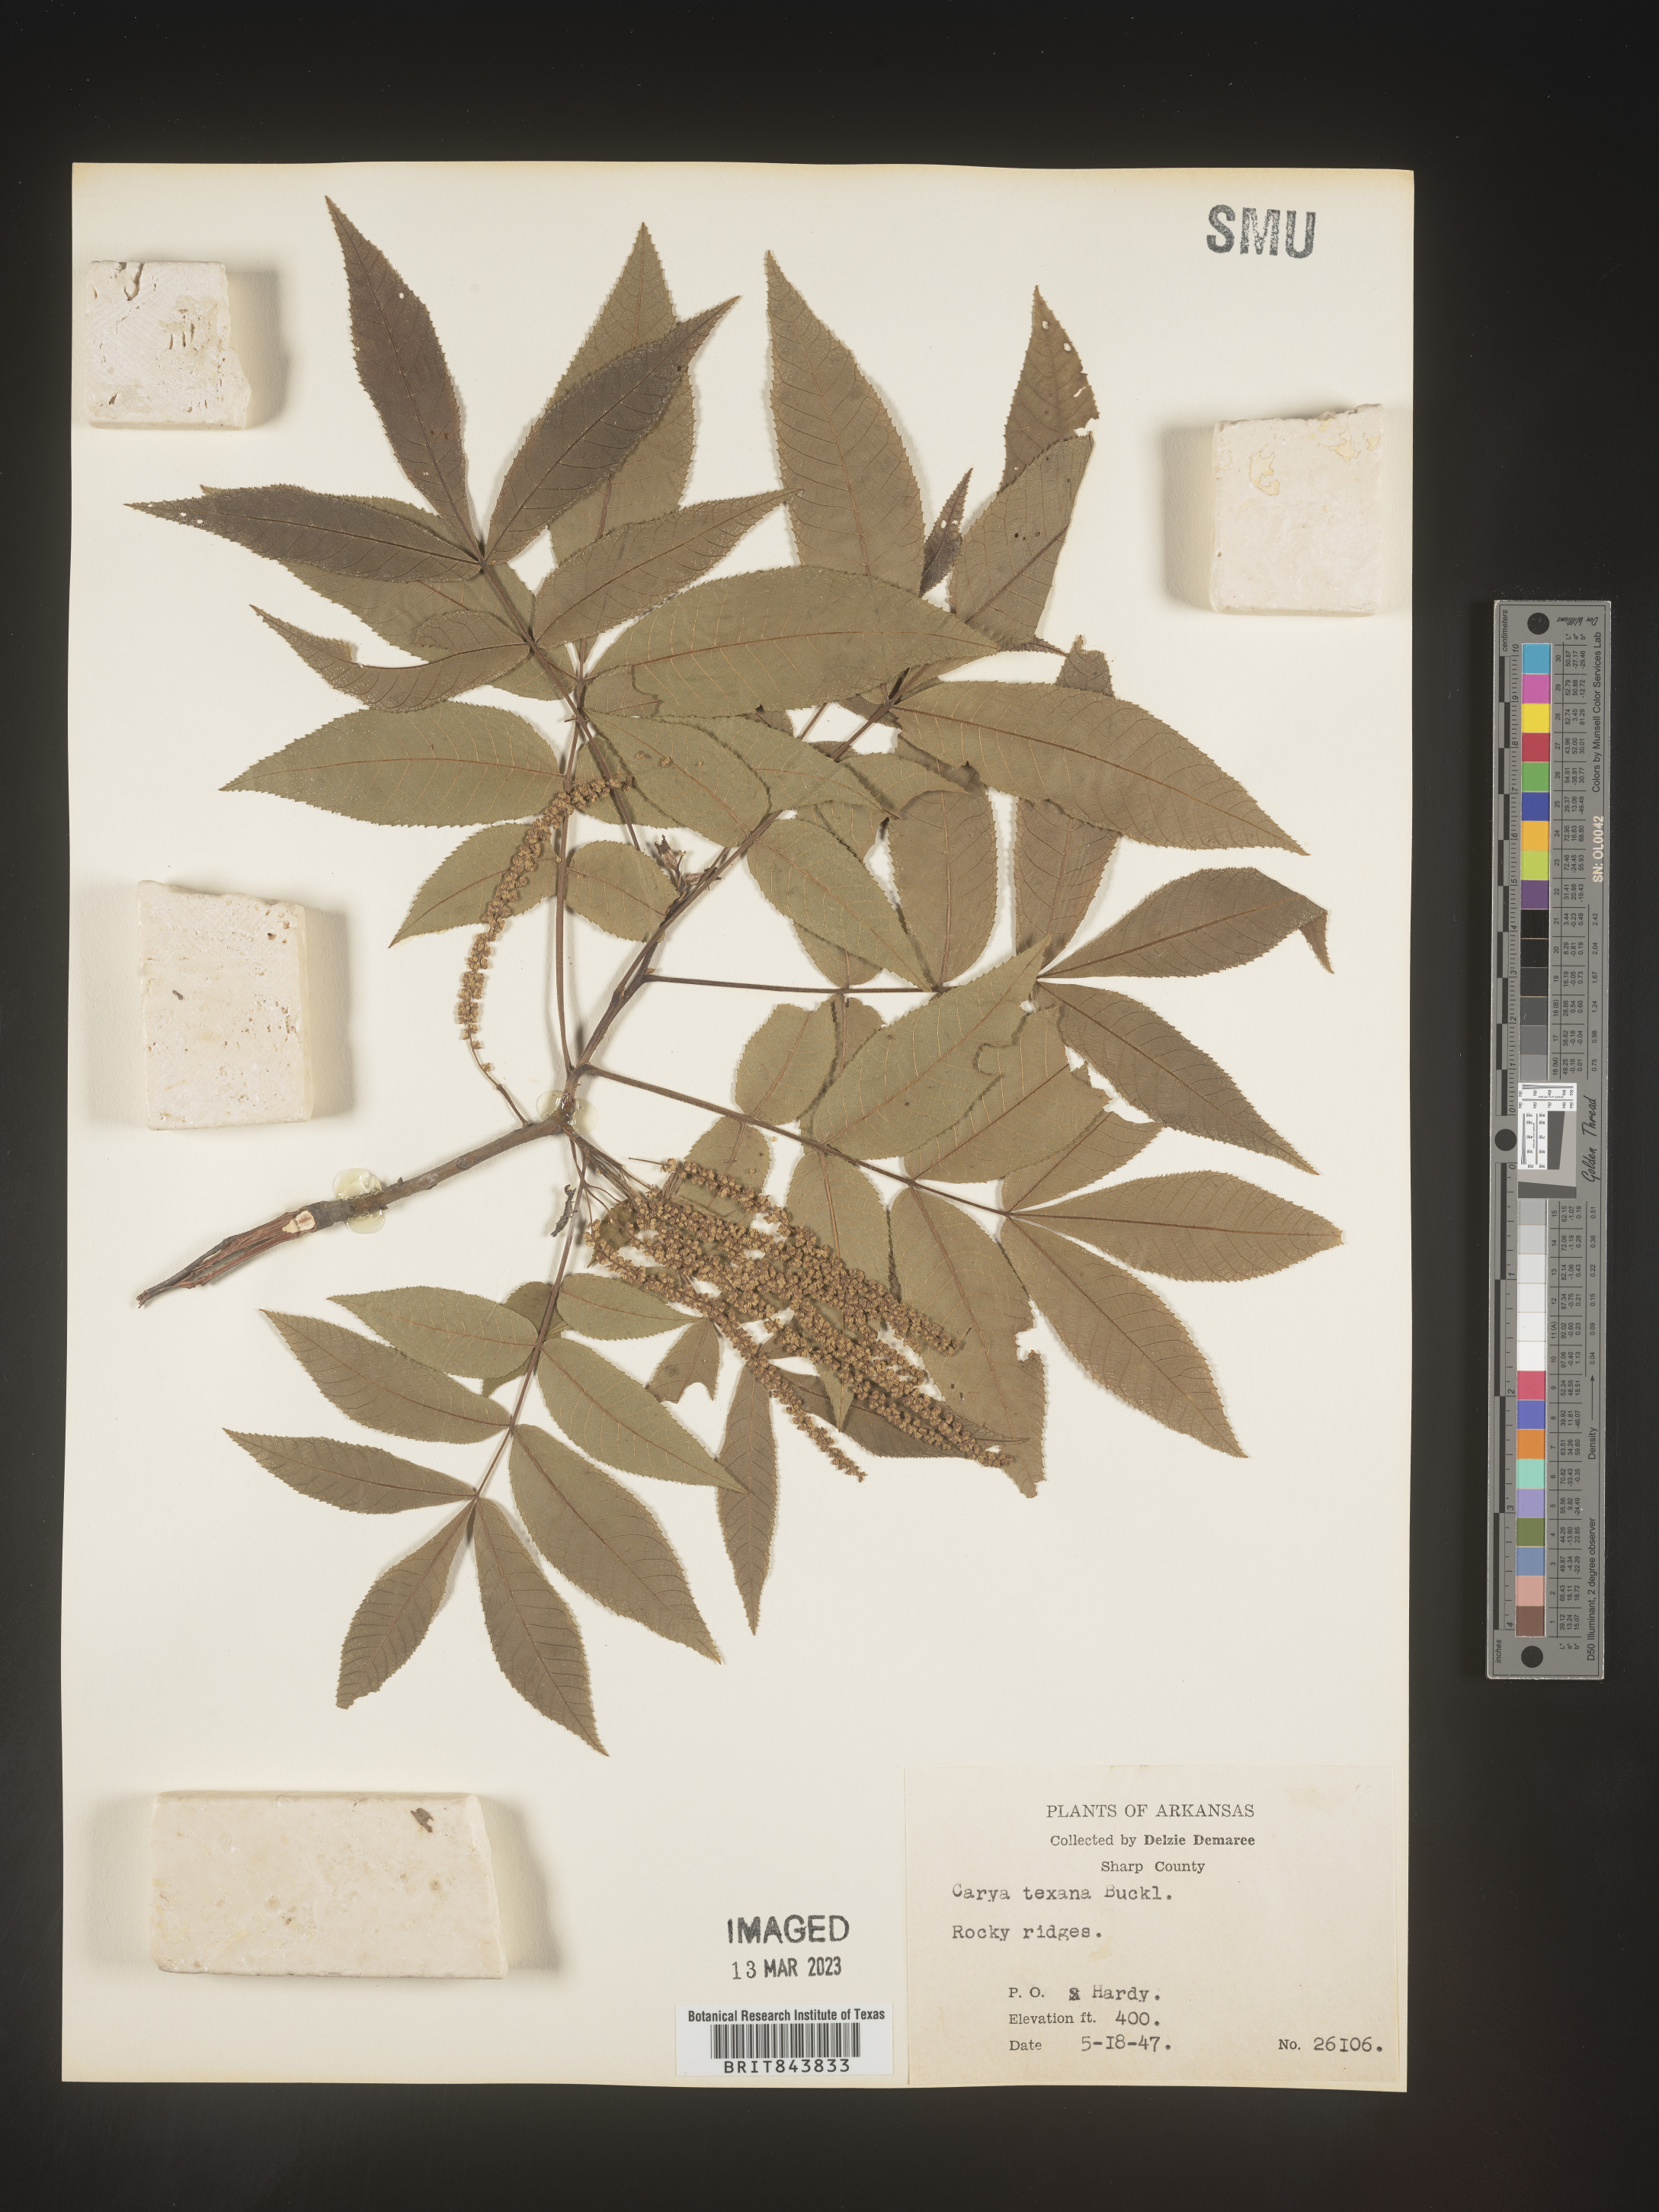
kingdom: Plantae
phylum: Tracheophyta
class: Magnoliopsida
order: Fagales
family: Juglandaceae
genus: Carya
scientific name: Carya texana
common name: Black hickory
